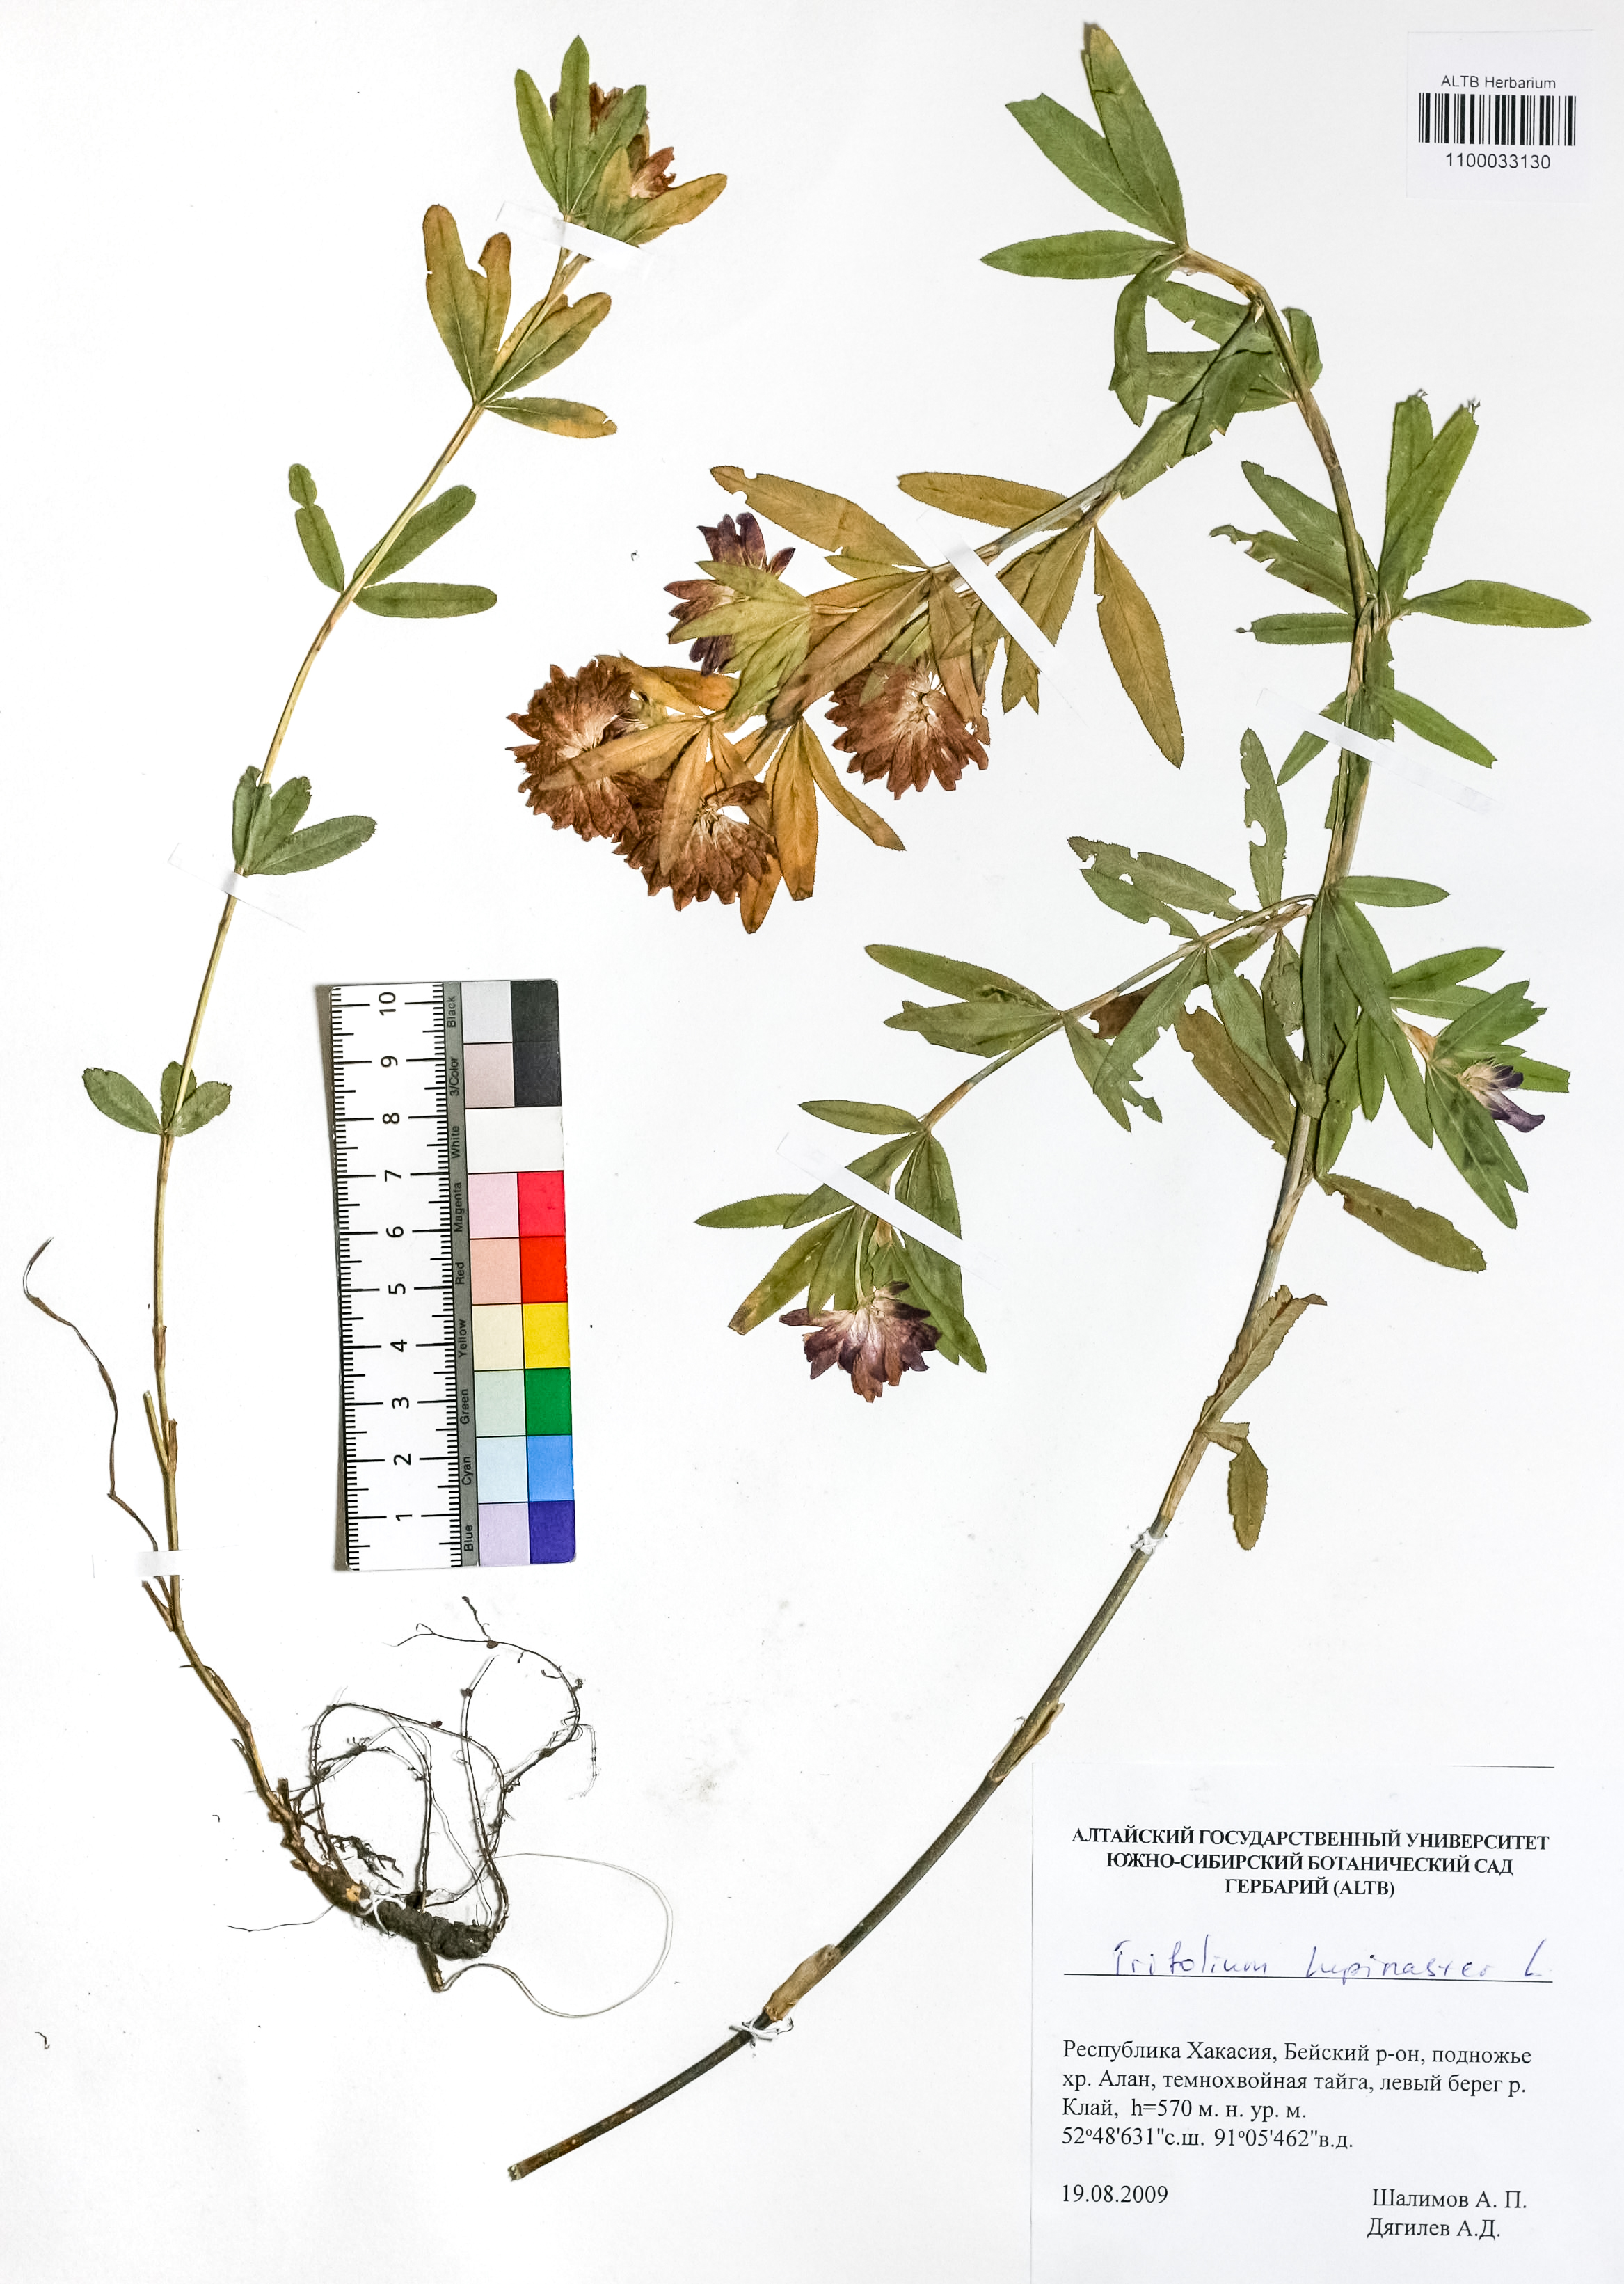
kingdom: Plantae
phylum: Tracheophyta
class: Magnoliopsida
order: Fabales
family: Fabaceae
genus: Trifolium
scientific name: Trifolium lupinaster
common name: Lupine clover
